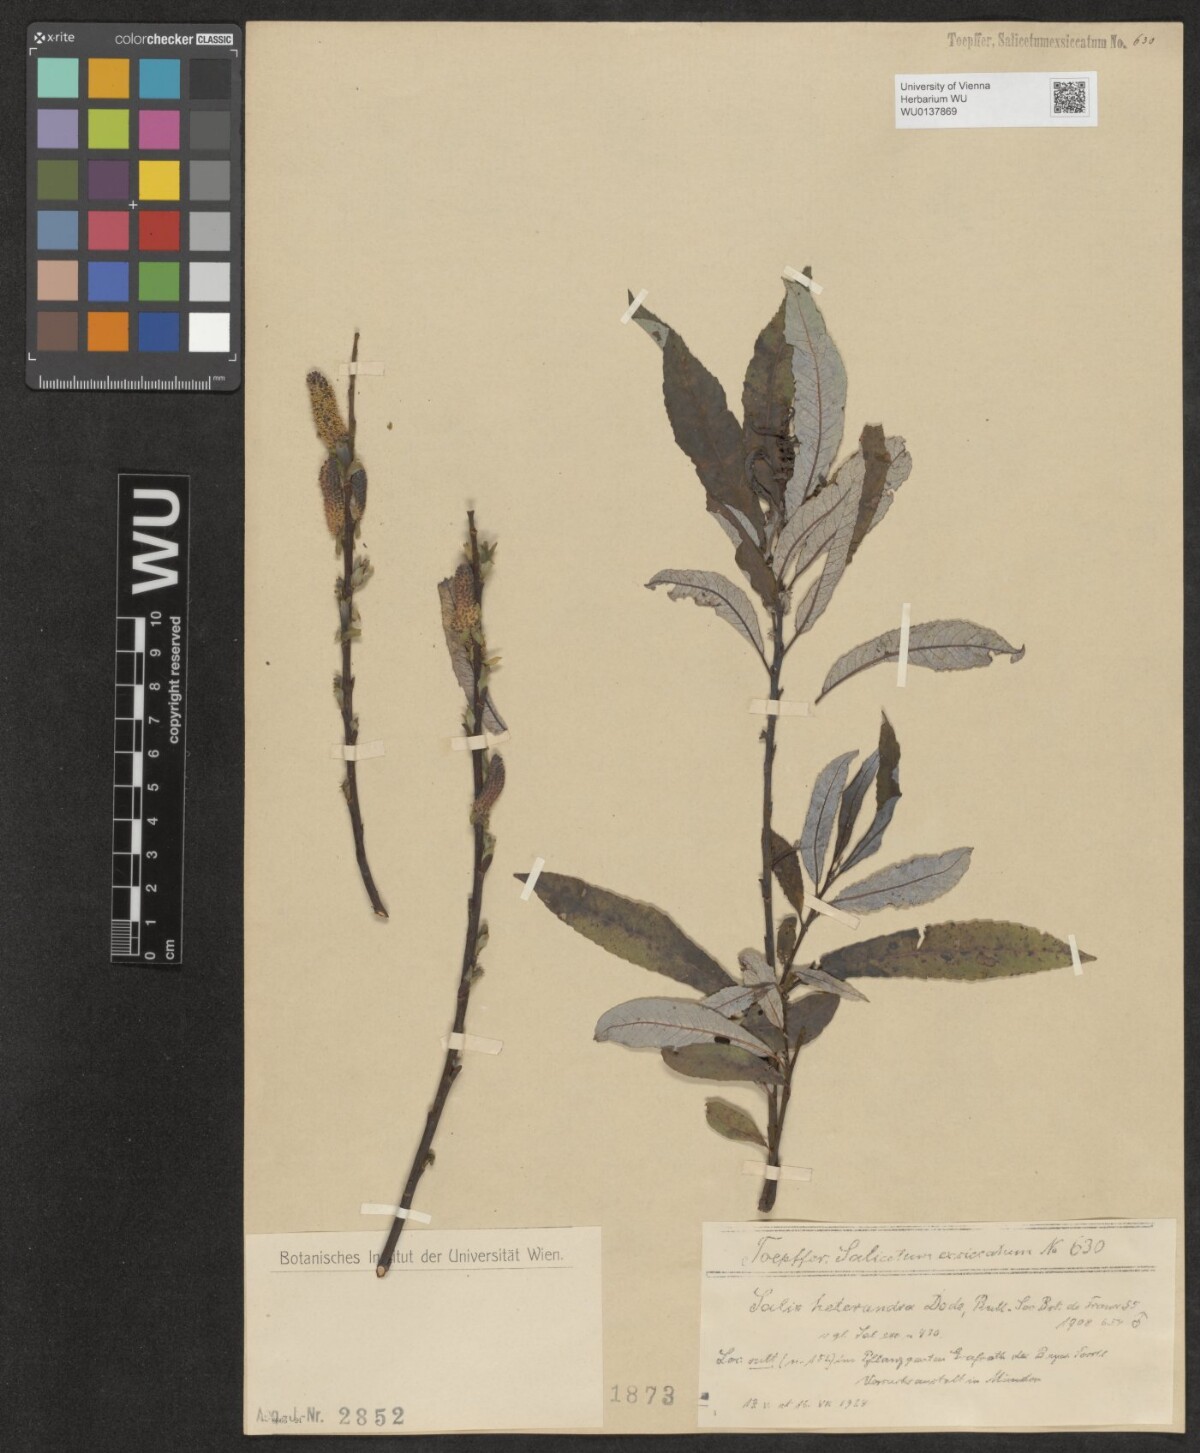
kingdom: Plantae
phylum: Tracheophyta
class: Magnoliopsida
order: Malpighiales
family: Salicaceae
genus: Salix
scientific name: Salix caucasica
